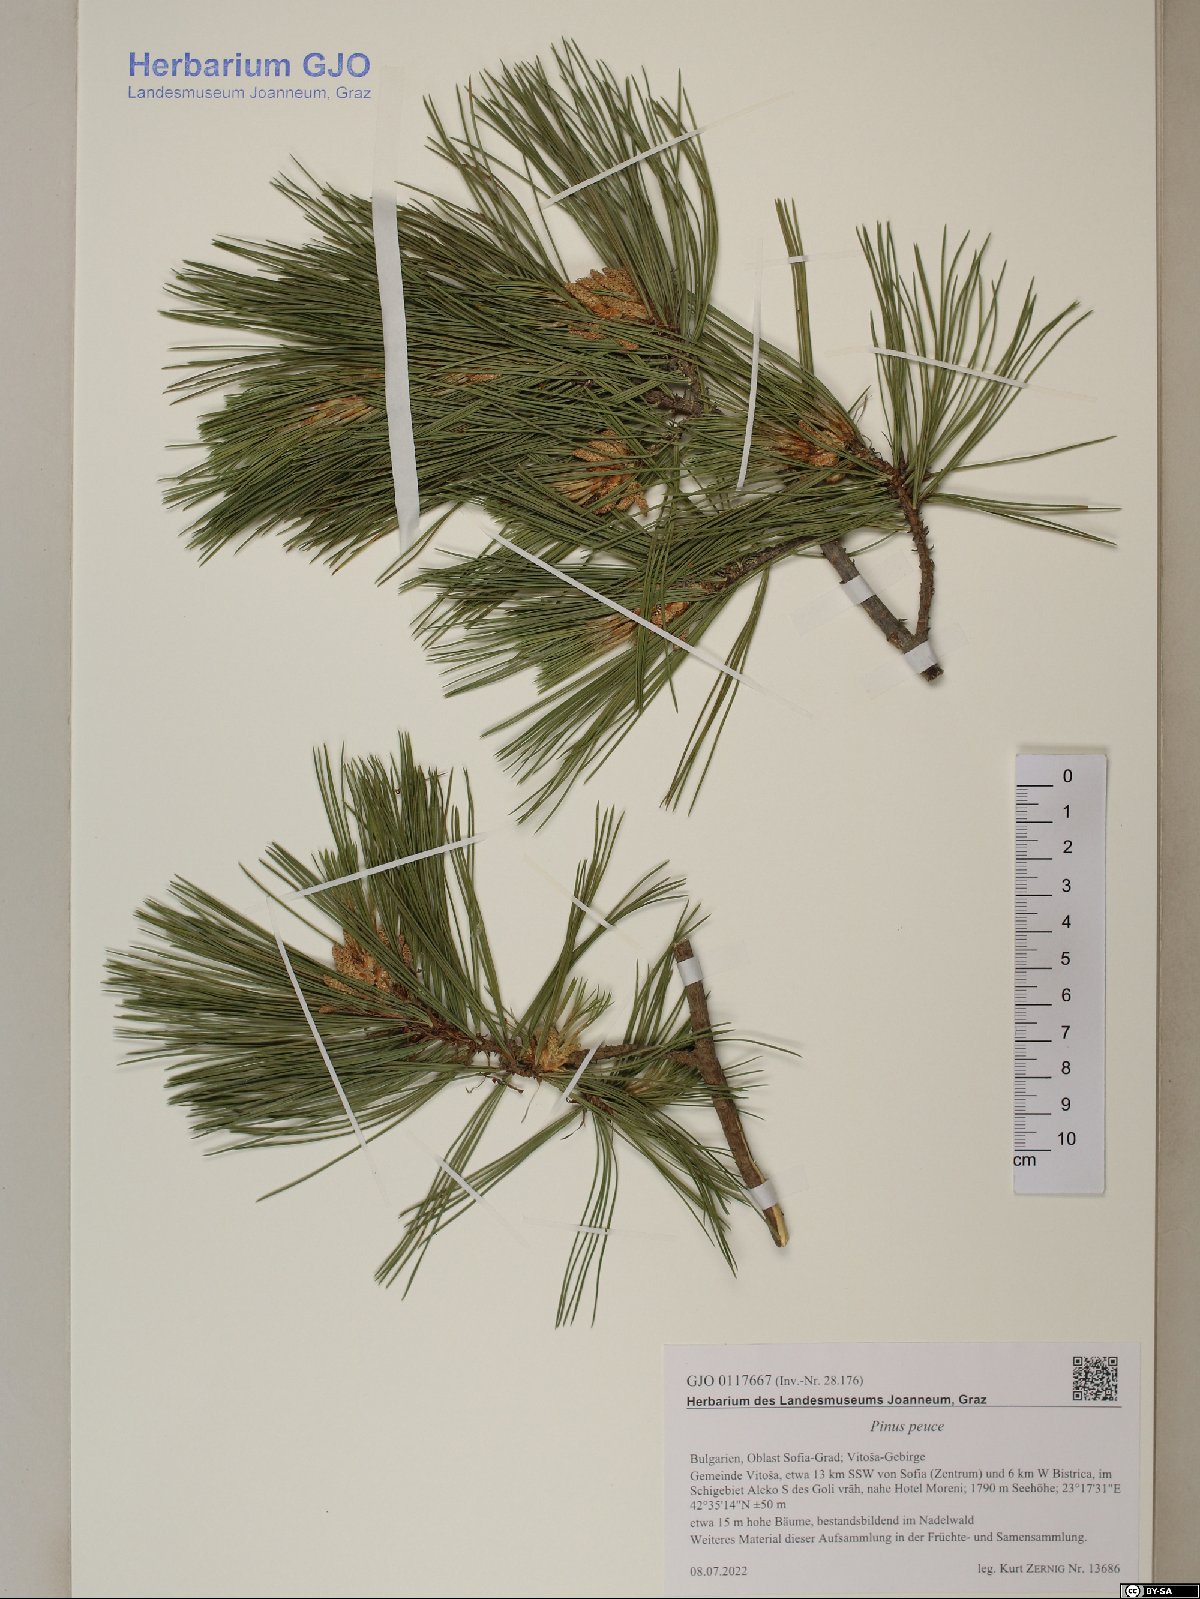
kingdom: Plantae
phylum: Tracheophyta
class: Pinopsida
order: Pinales
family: Pinaceae
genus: Pinus
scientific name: Pinus peuce
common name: Macedonian pine
